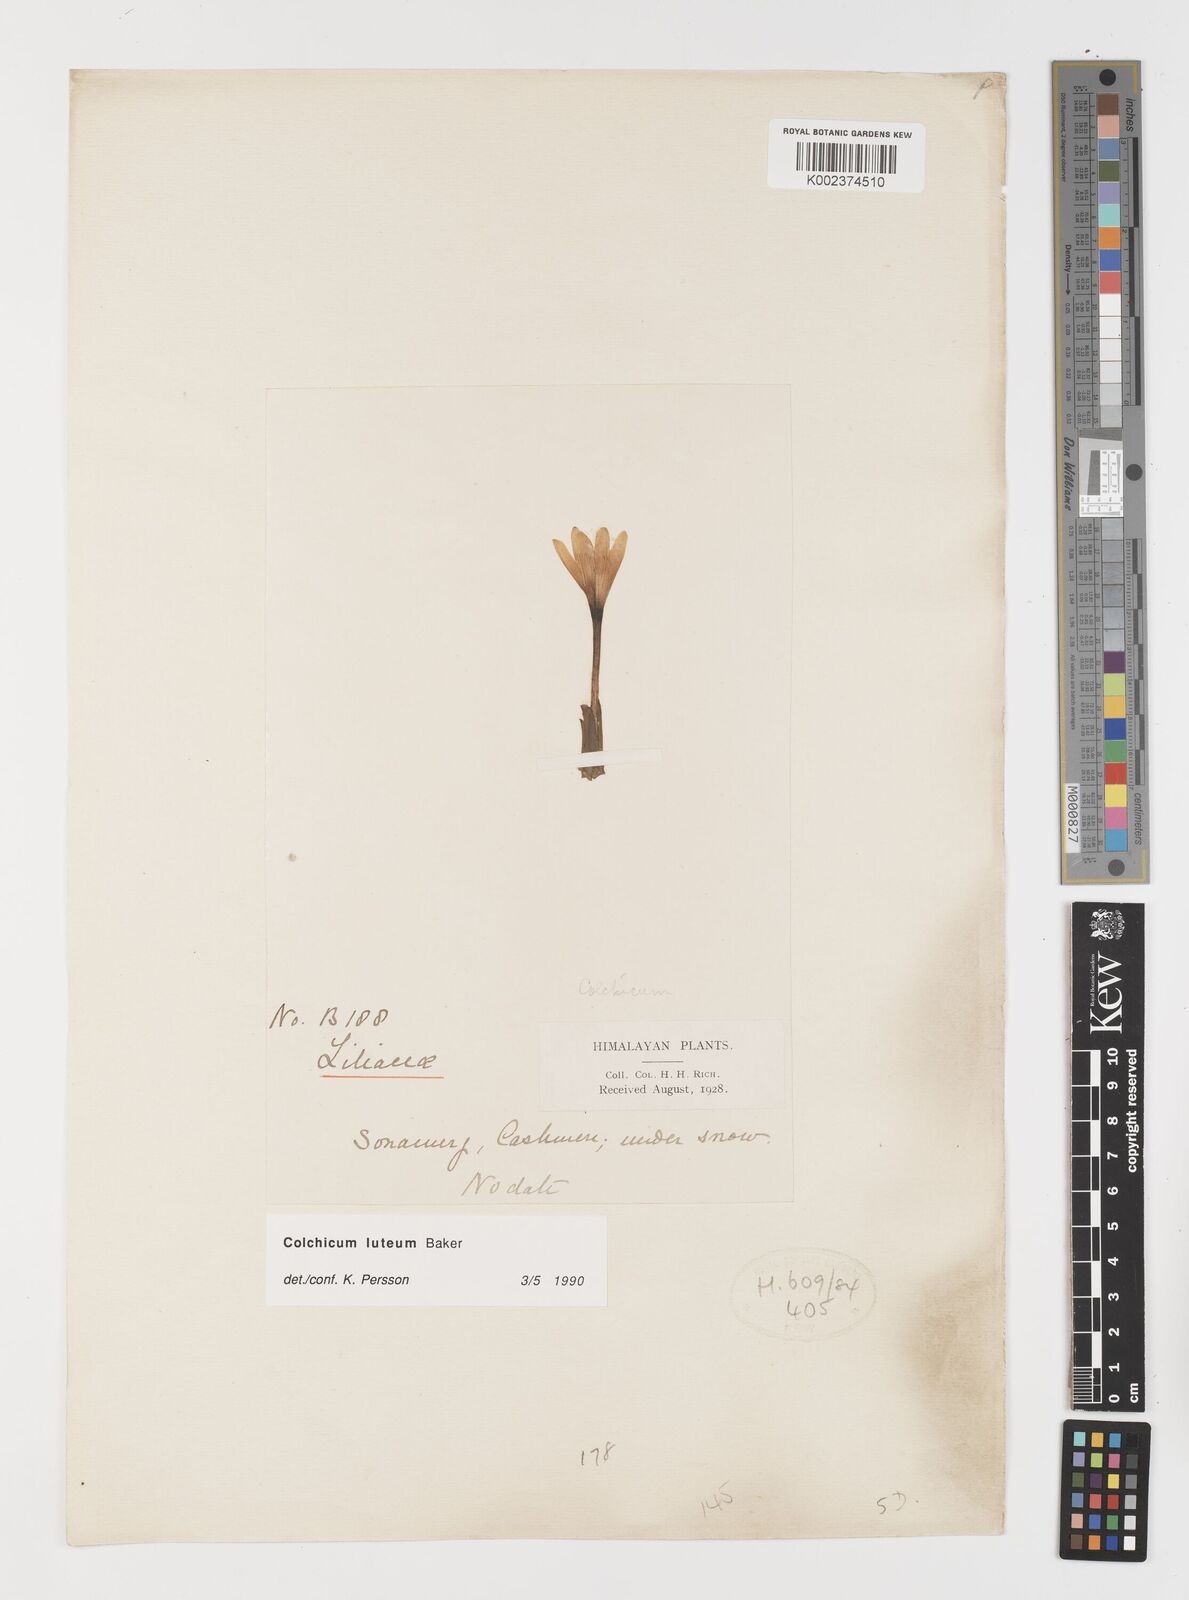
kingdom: Plantae
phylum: Tracheophyta
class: Liliopsida
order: Liliales
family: Colchicaceae
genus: Colchicum
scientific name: Colchicum luteum
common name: Indian colchicum
